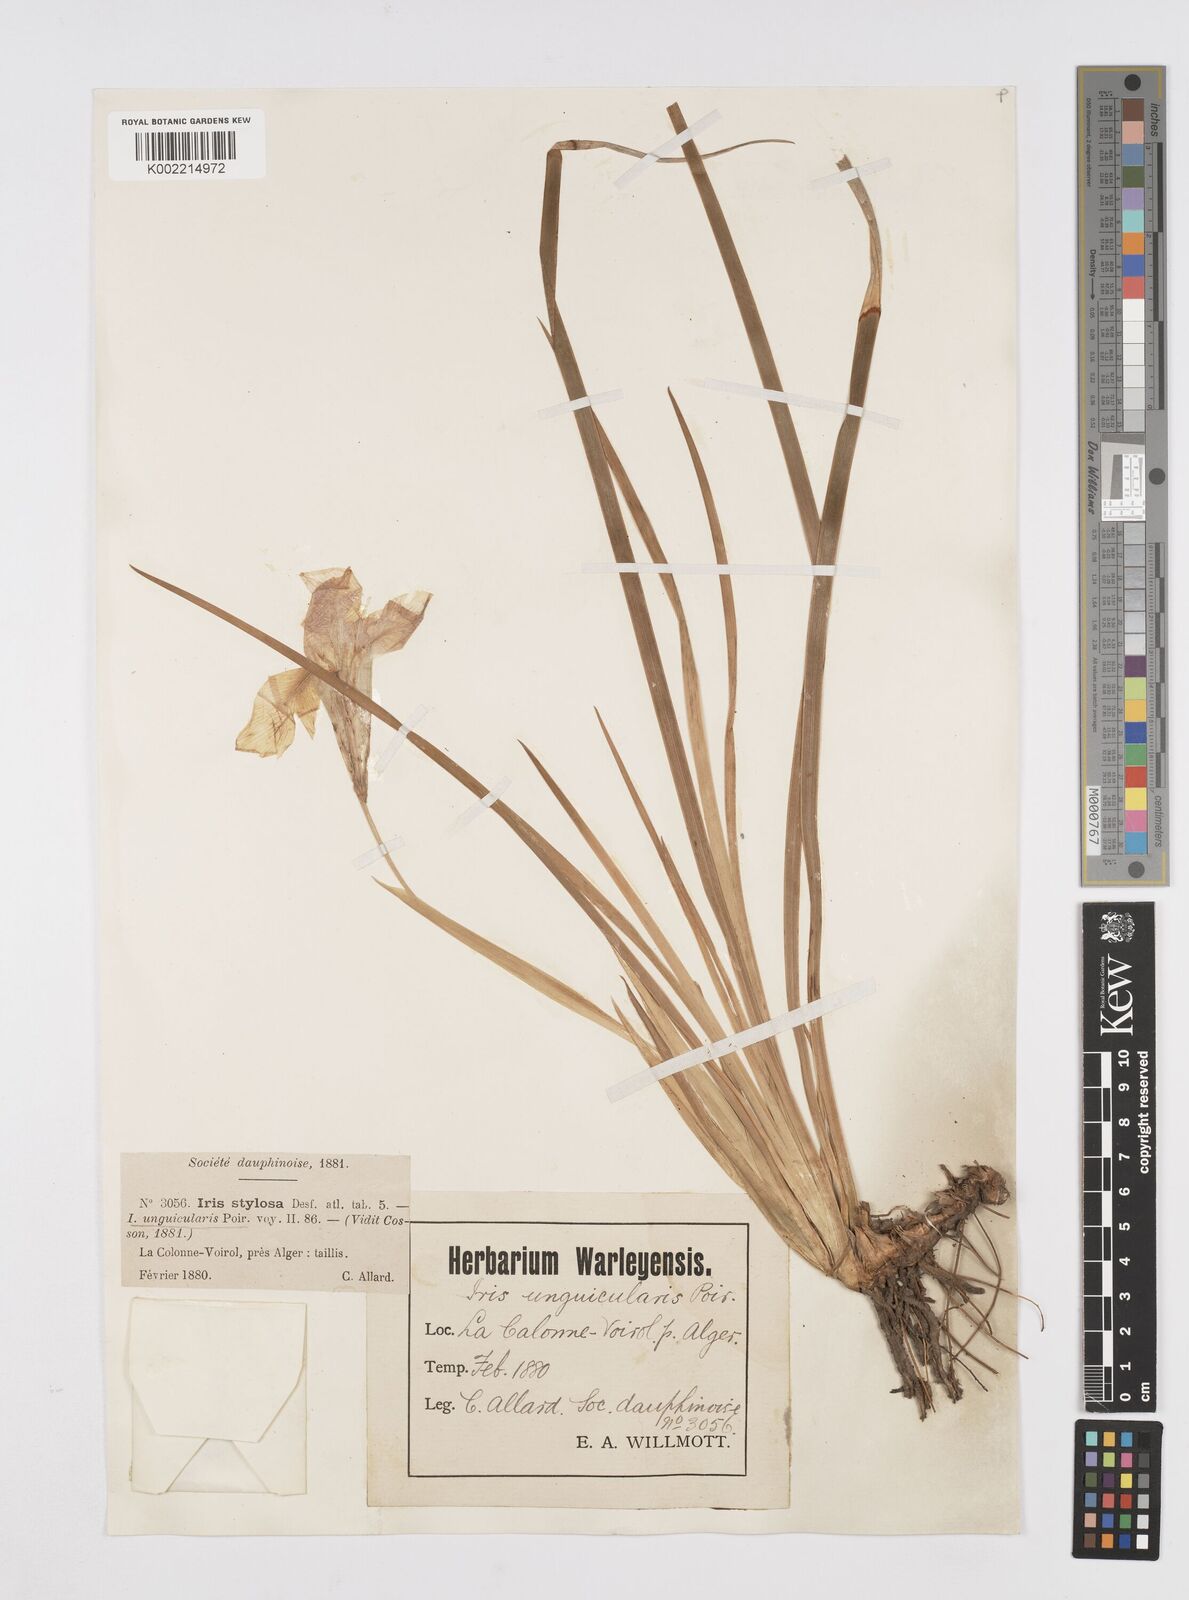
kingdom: Plantae
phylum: Tracheophyta
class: Liliopsida
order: Asparagales
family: Iridaceae
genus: Iris
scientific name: Iris unguicularis
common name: Algerian iris
